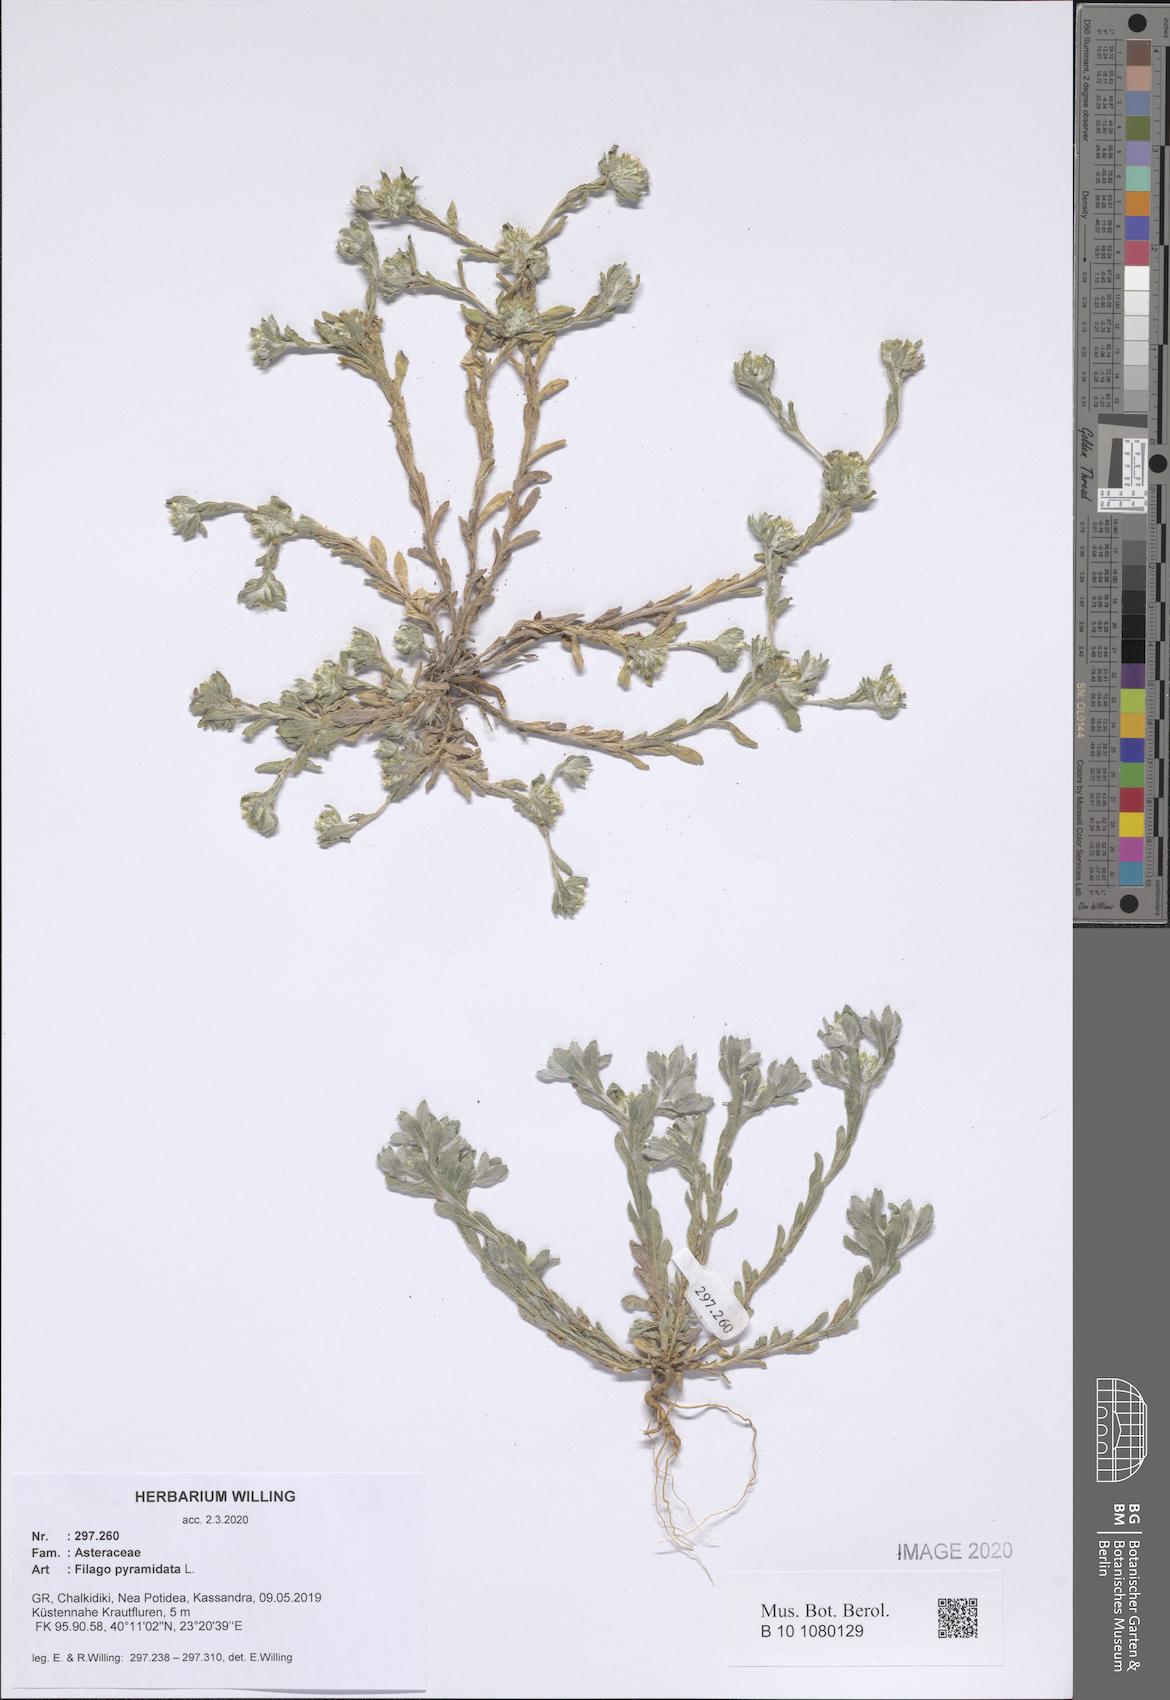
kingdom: Plantae
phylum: Tracheophyta
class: Magnoliopsida
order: Asterales
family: Asteraceae
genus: Filago
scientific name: Filago pyramidata
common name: Broad-leaved cudweed
